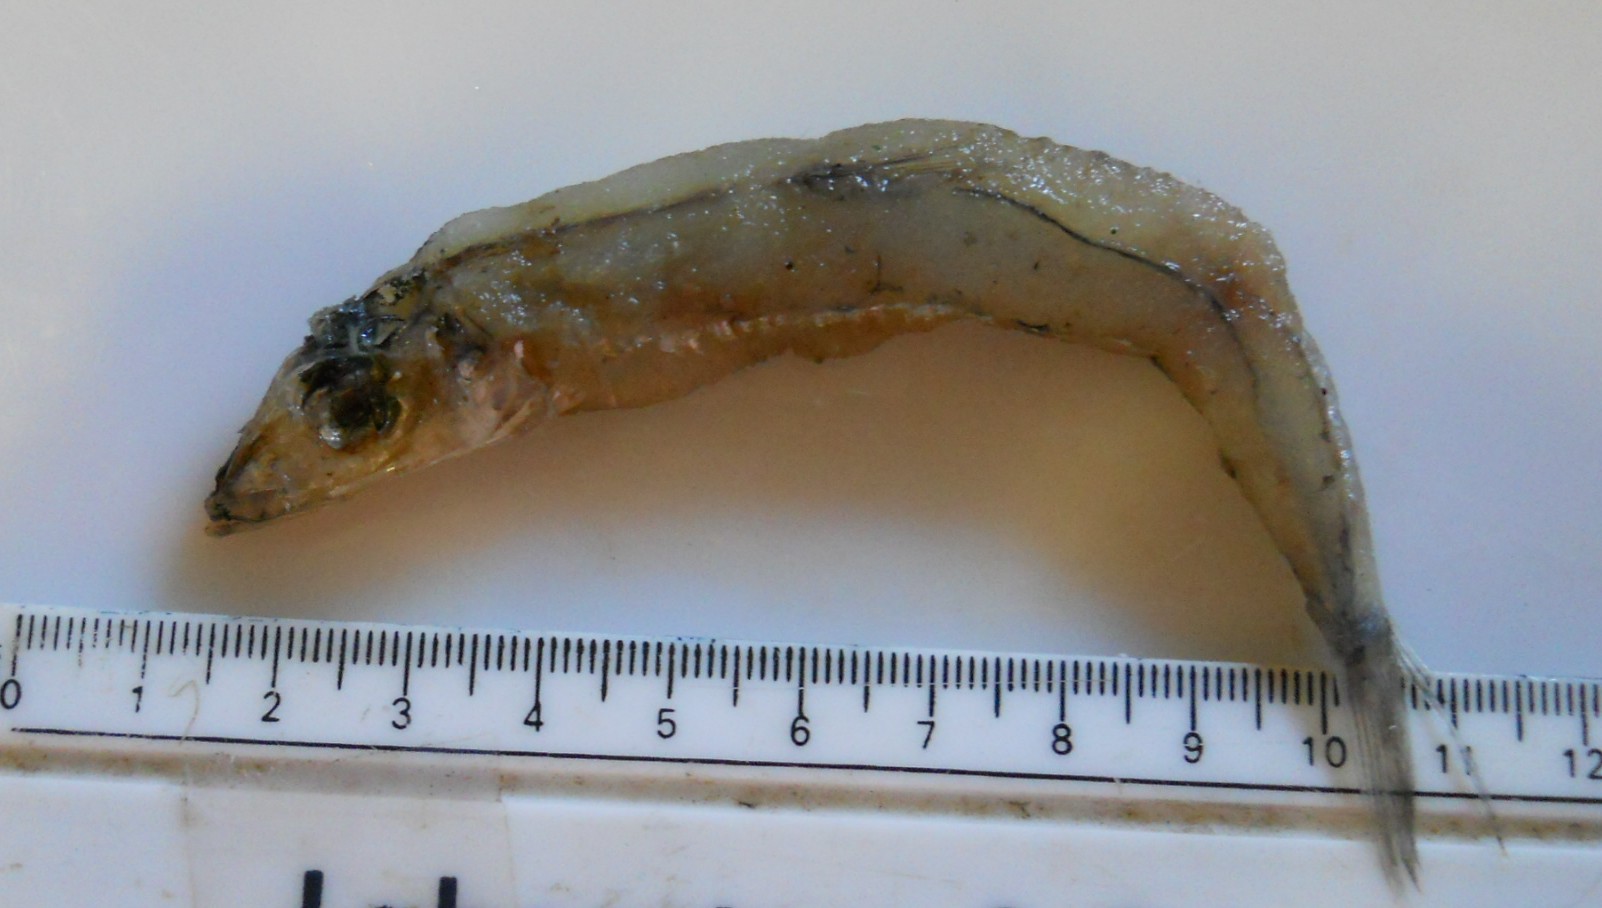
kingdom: Animalia
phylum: Chordata
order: Osmeriformes
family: Microstomatidae
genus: Nansenia
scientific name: Nansenia ardesiaca
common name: Robust smallmouth
